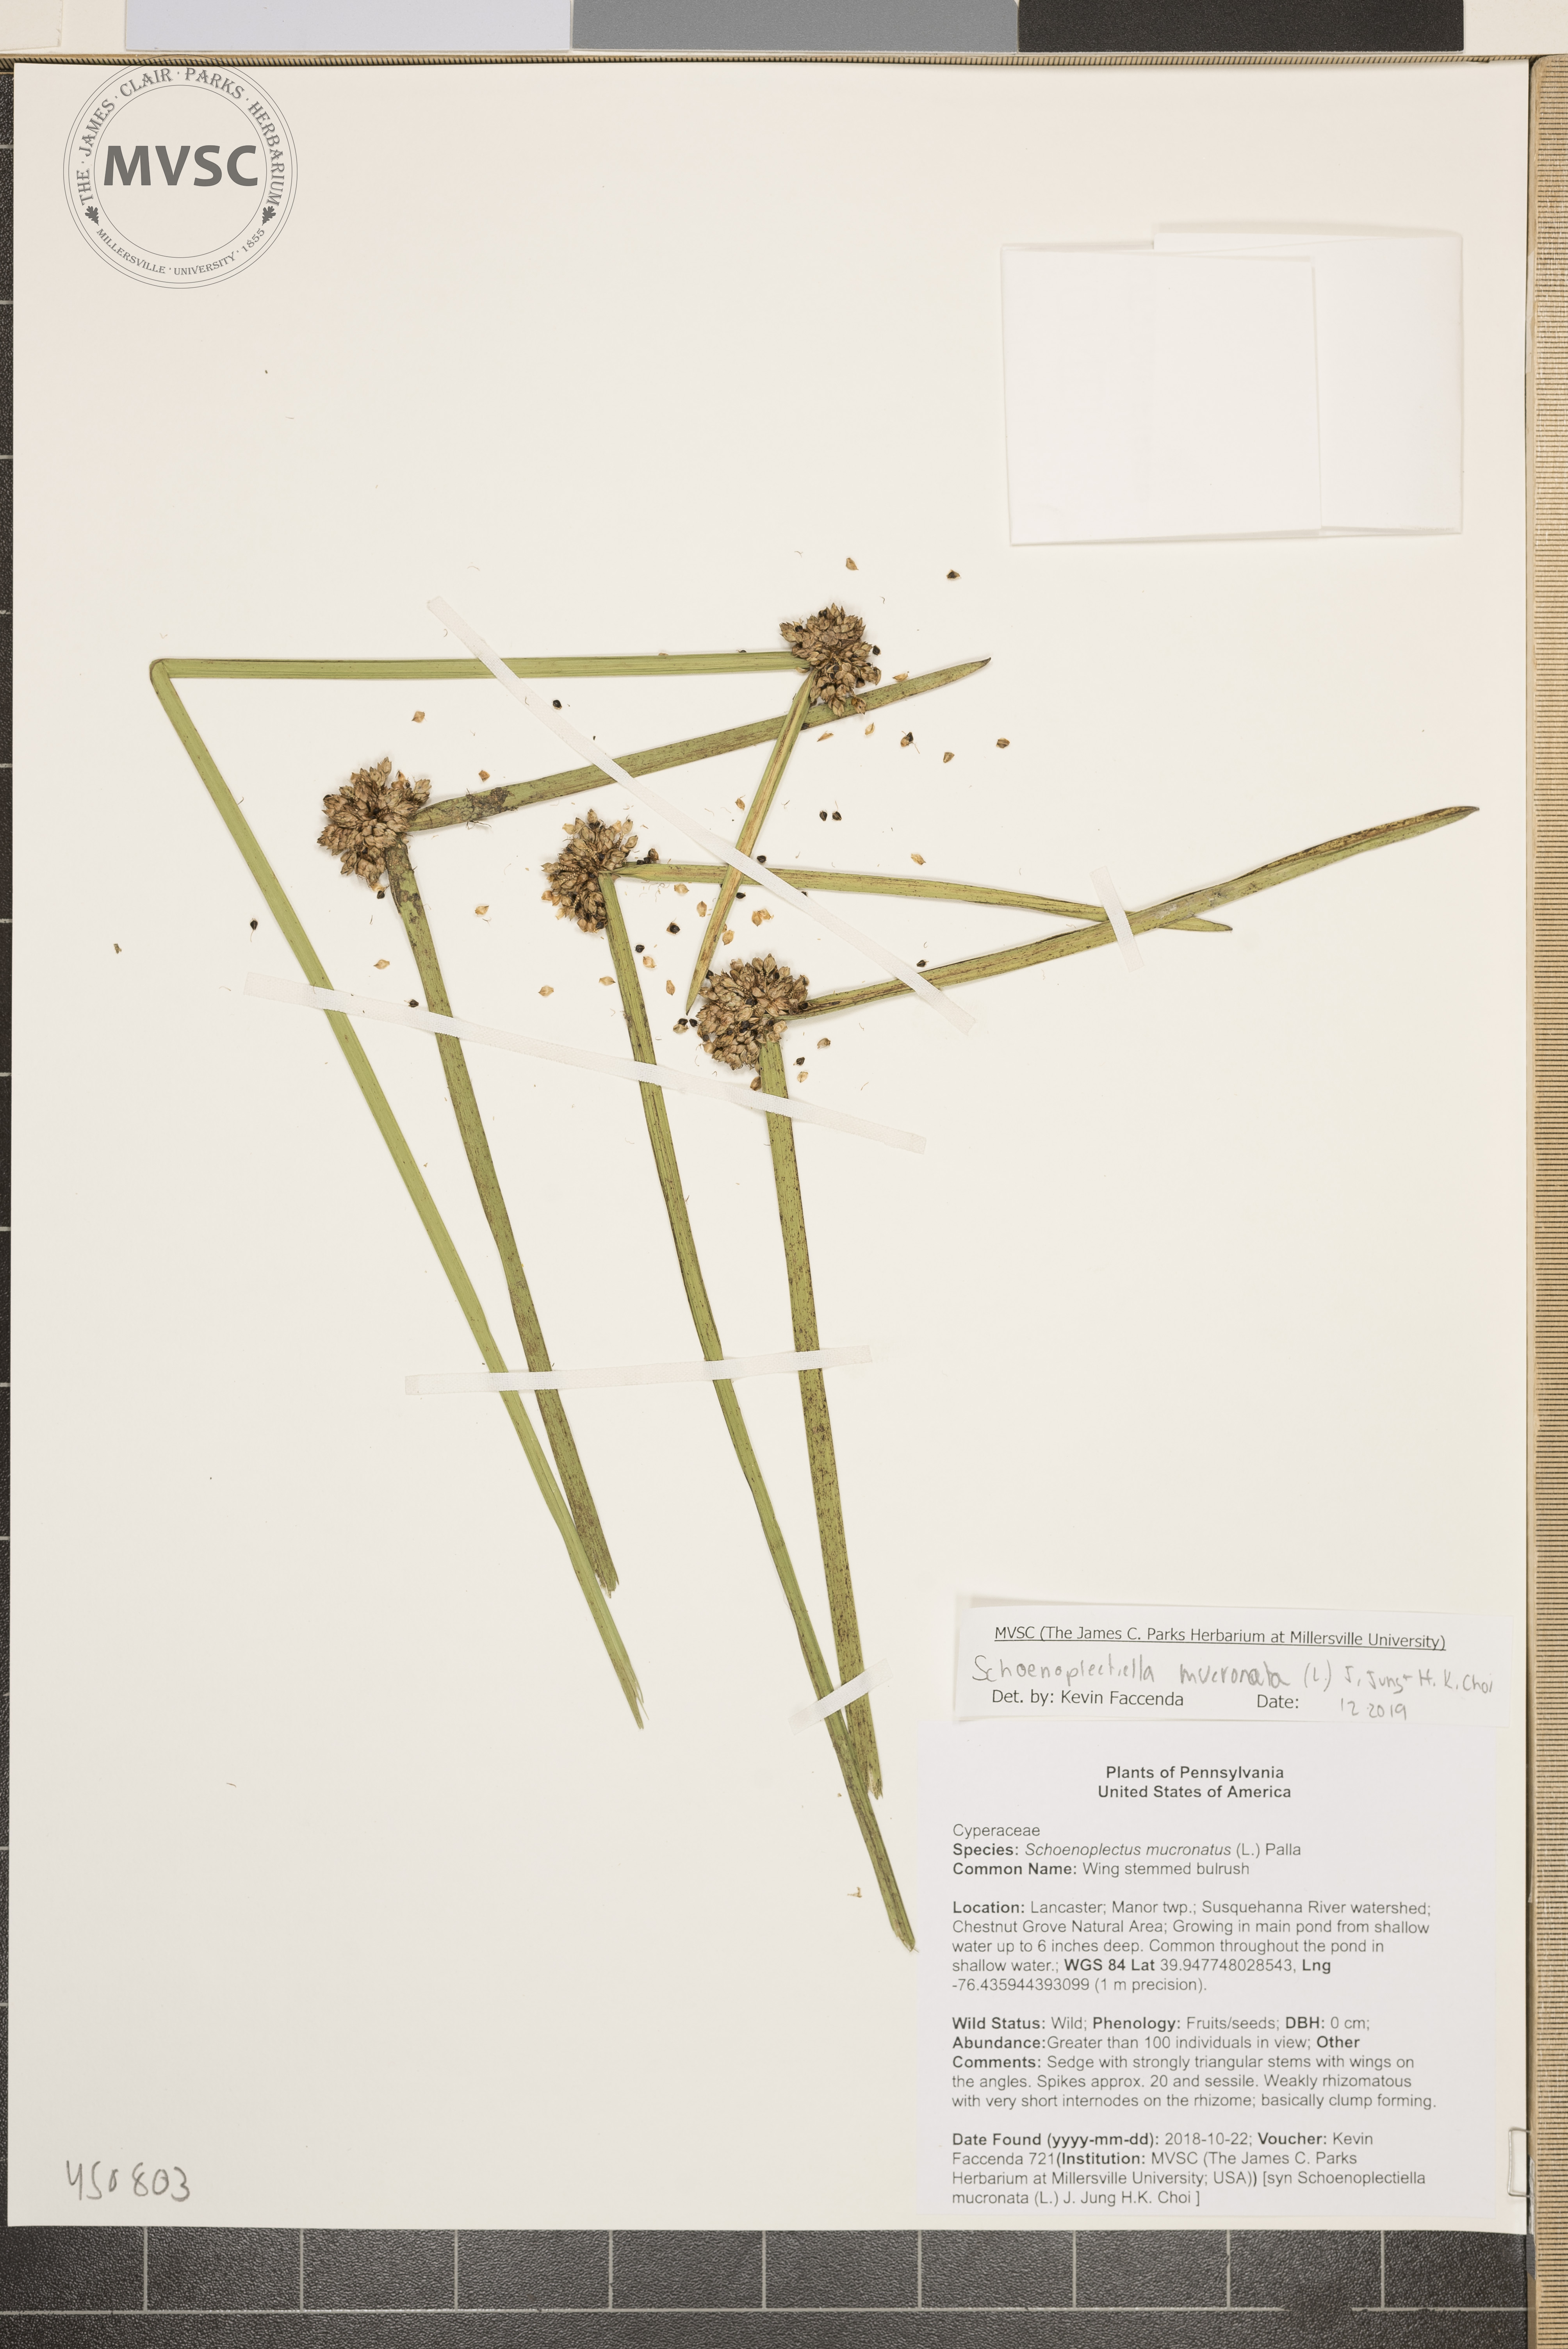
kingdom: Plantae
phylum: Tracheophyta
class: Liliopsida
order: Poales
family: Cyperaceae
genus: Schoenoplectiella
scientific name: Schoenoplectiella mucronata
